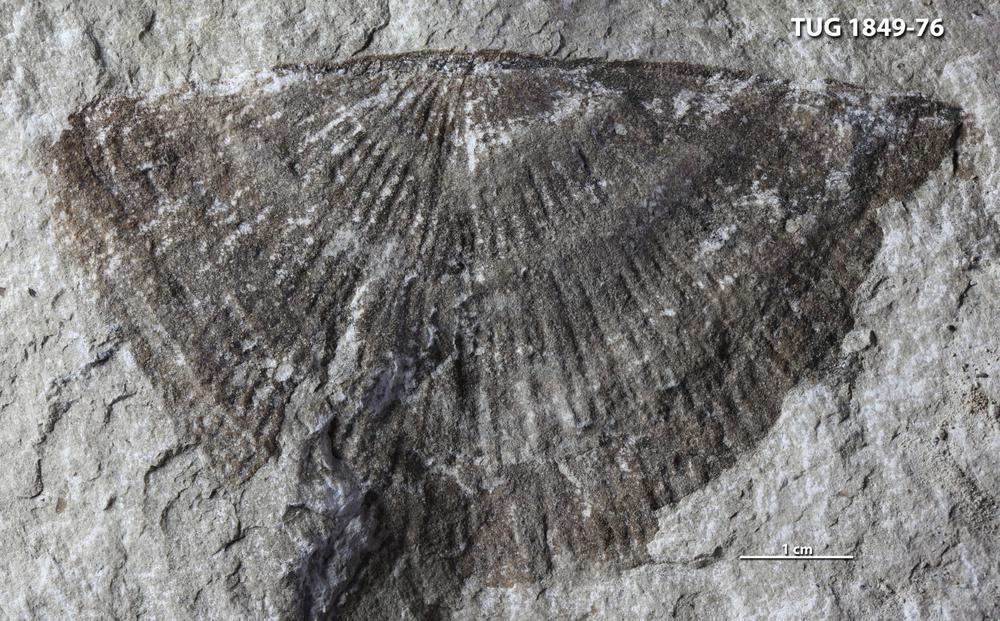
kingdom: Animalia
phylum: Brachiopoda
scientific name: Brachiopoda
